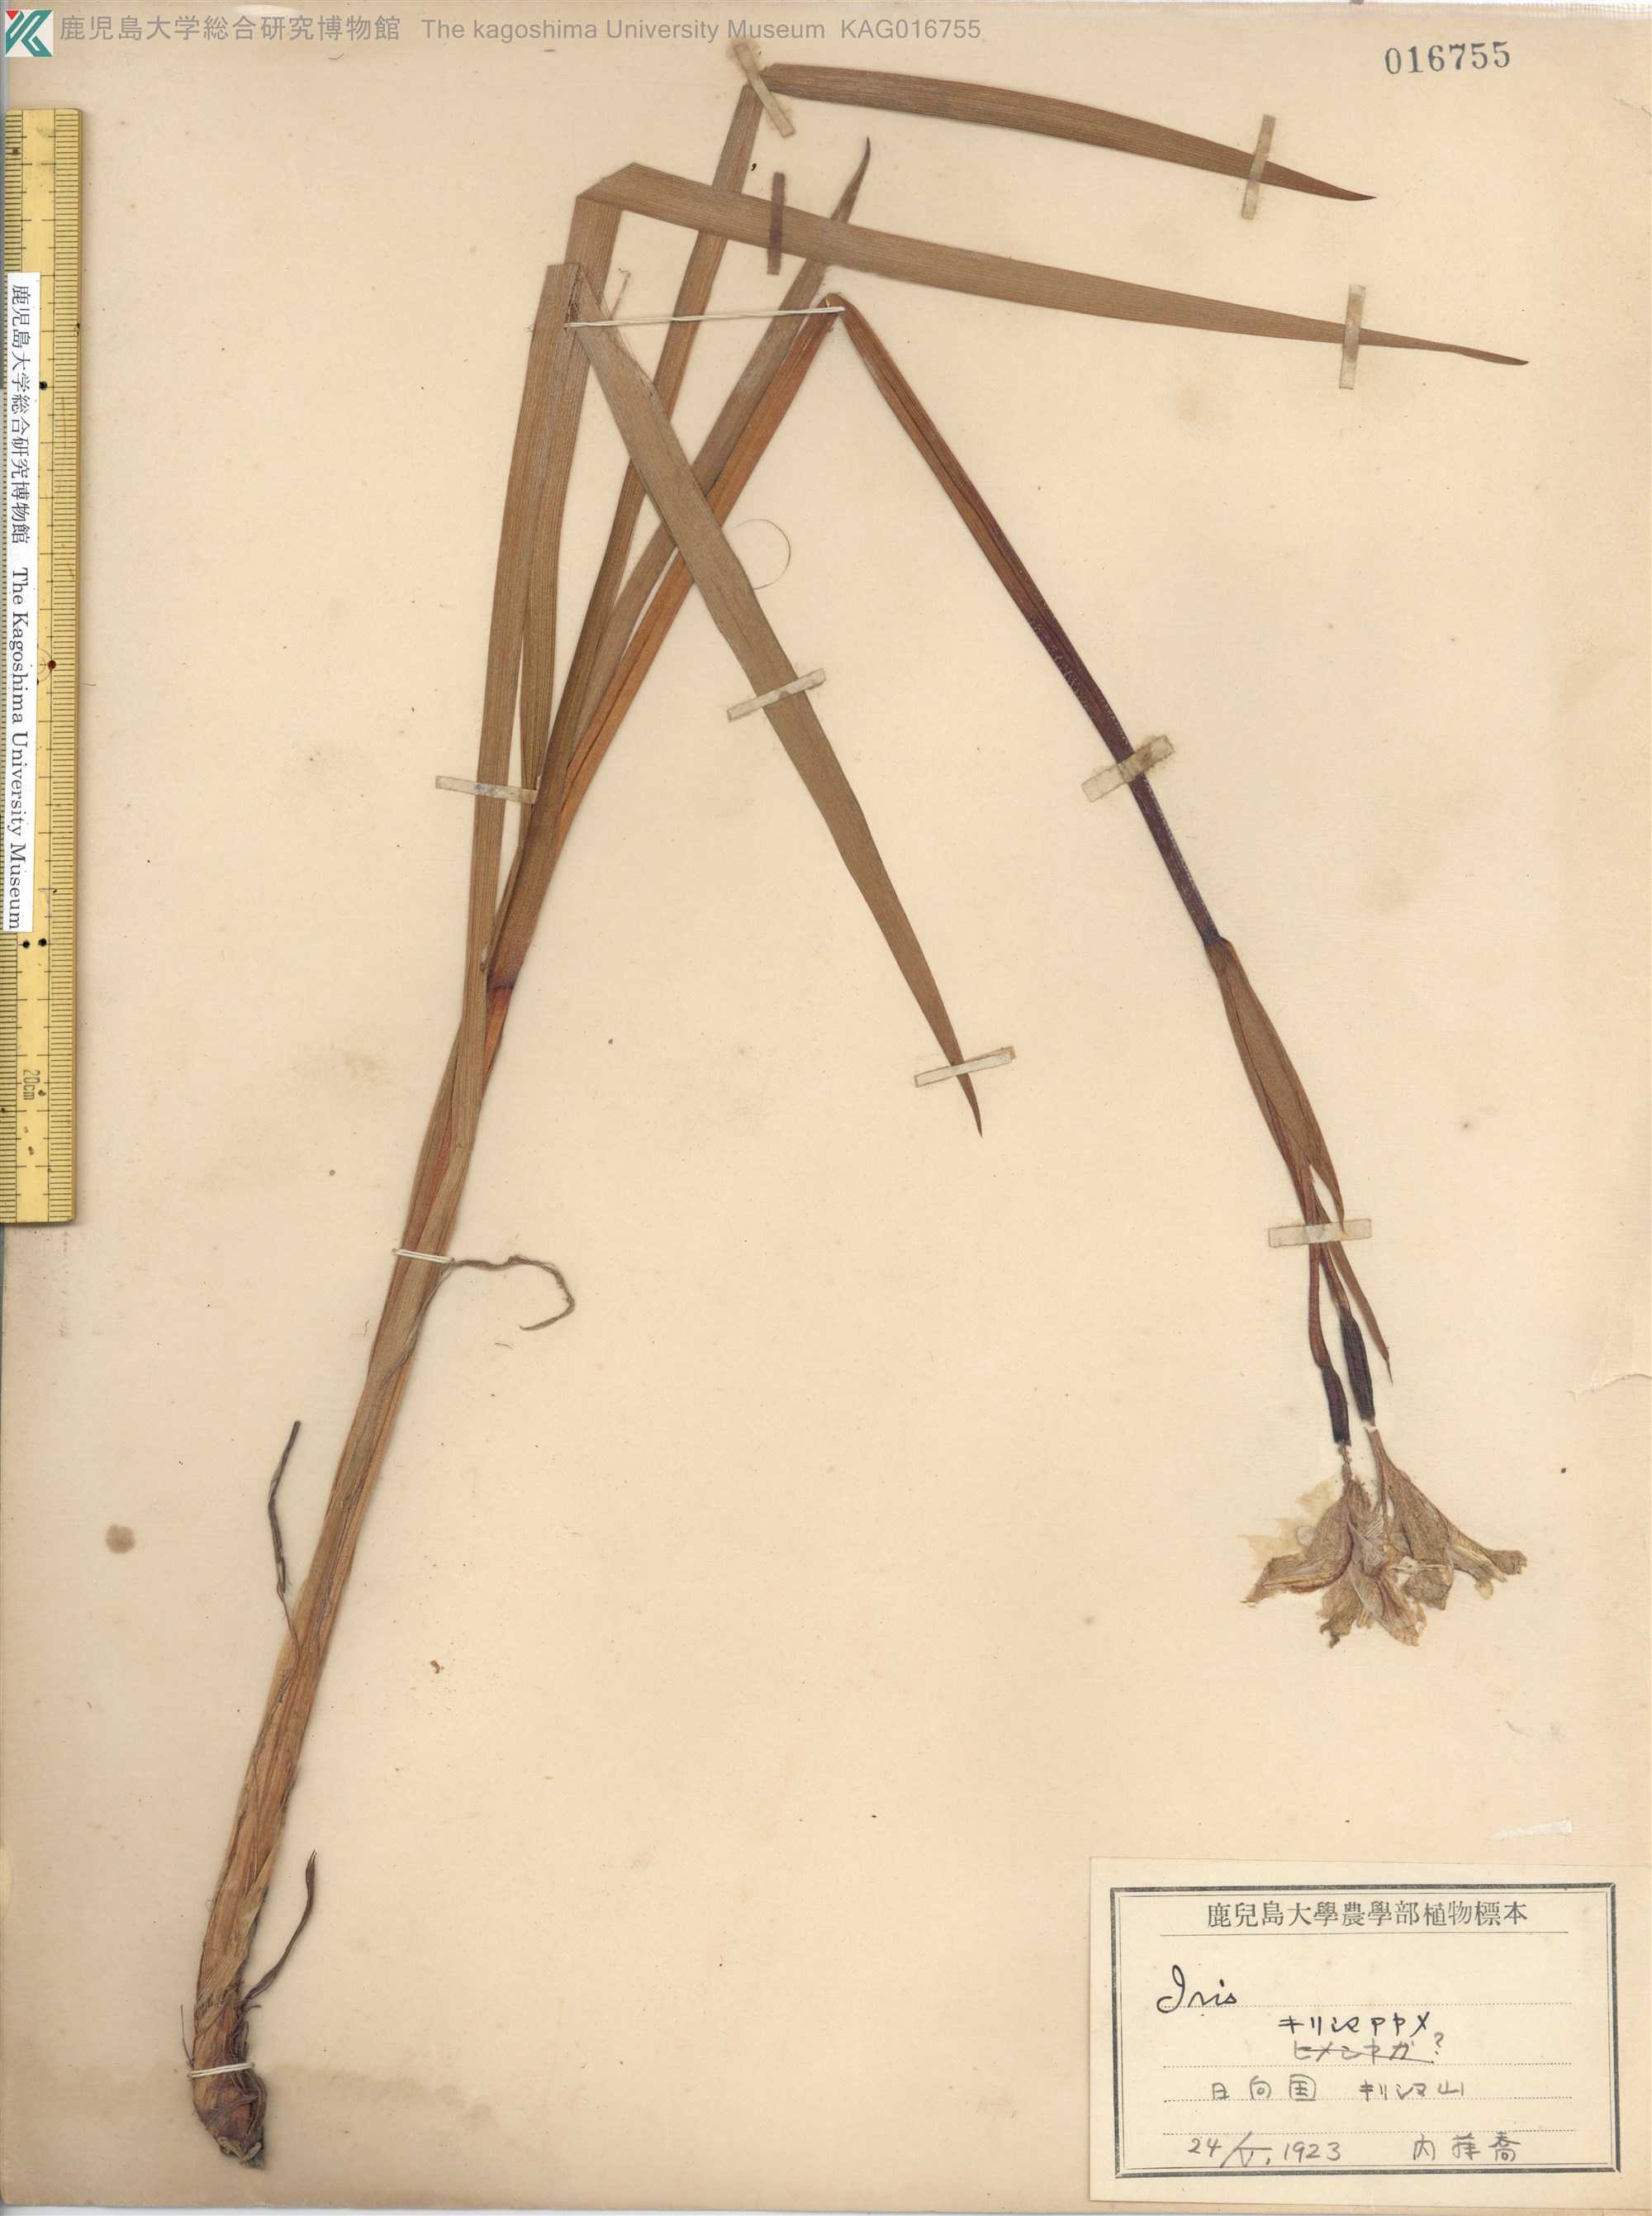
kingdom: Plantae
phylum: Tracheophyta
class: Liliopsida
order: Asparagales
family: Iridaceae
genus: Iris
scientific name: Iris sanguinea
